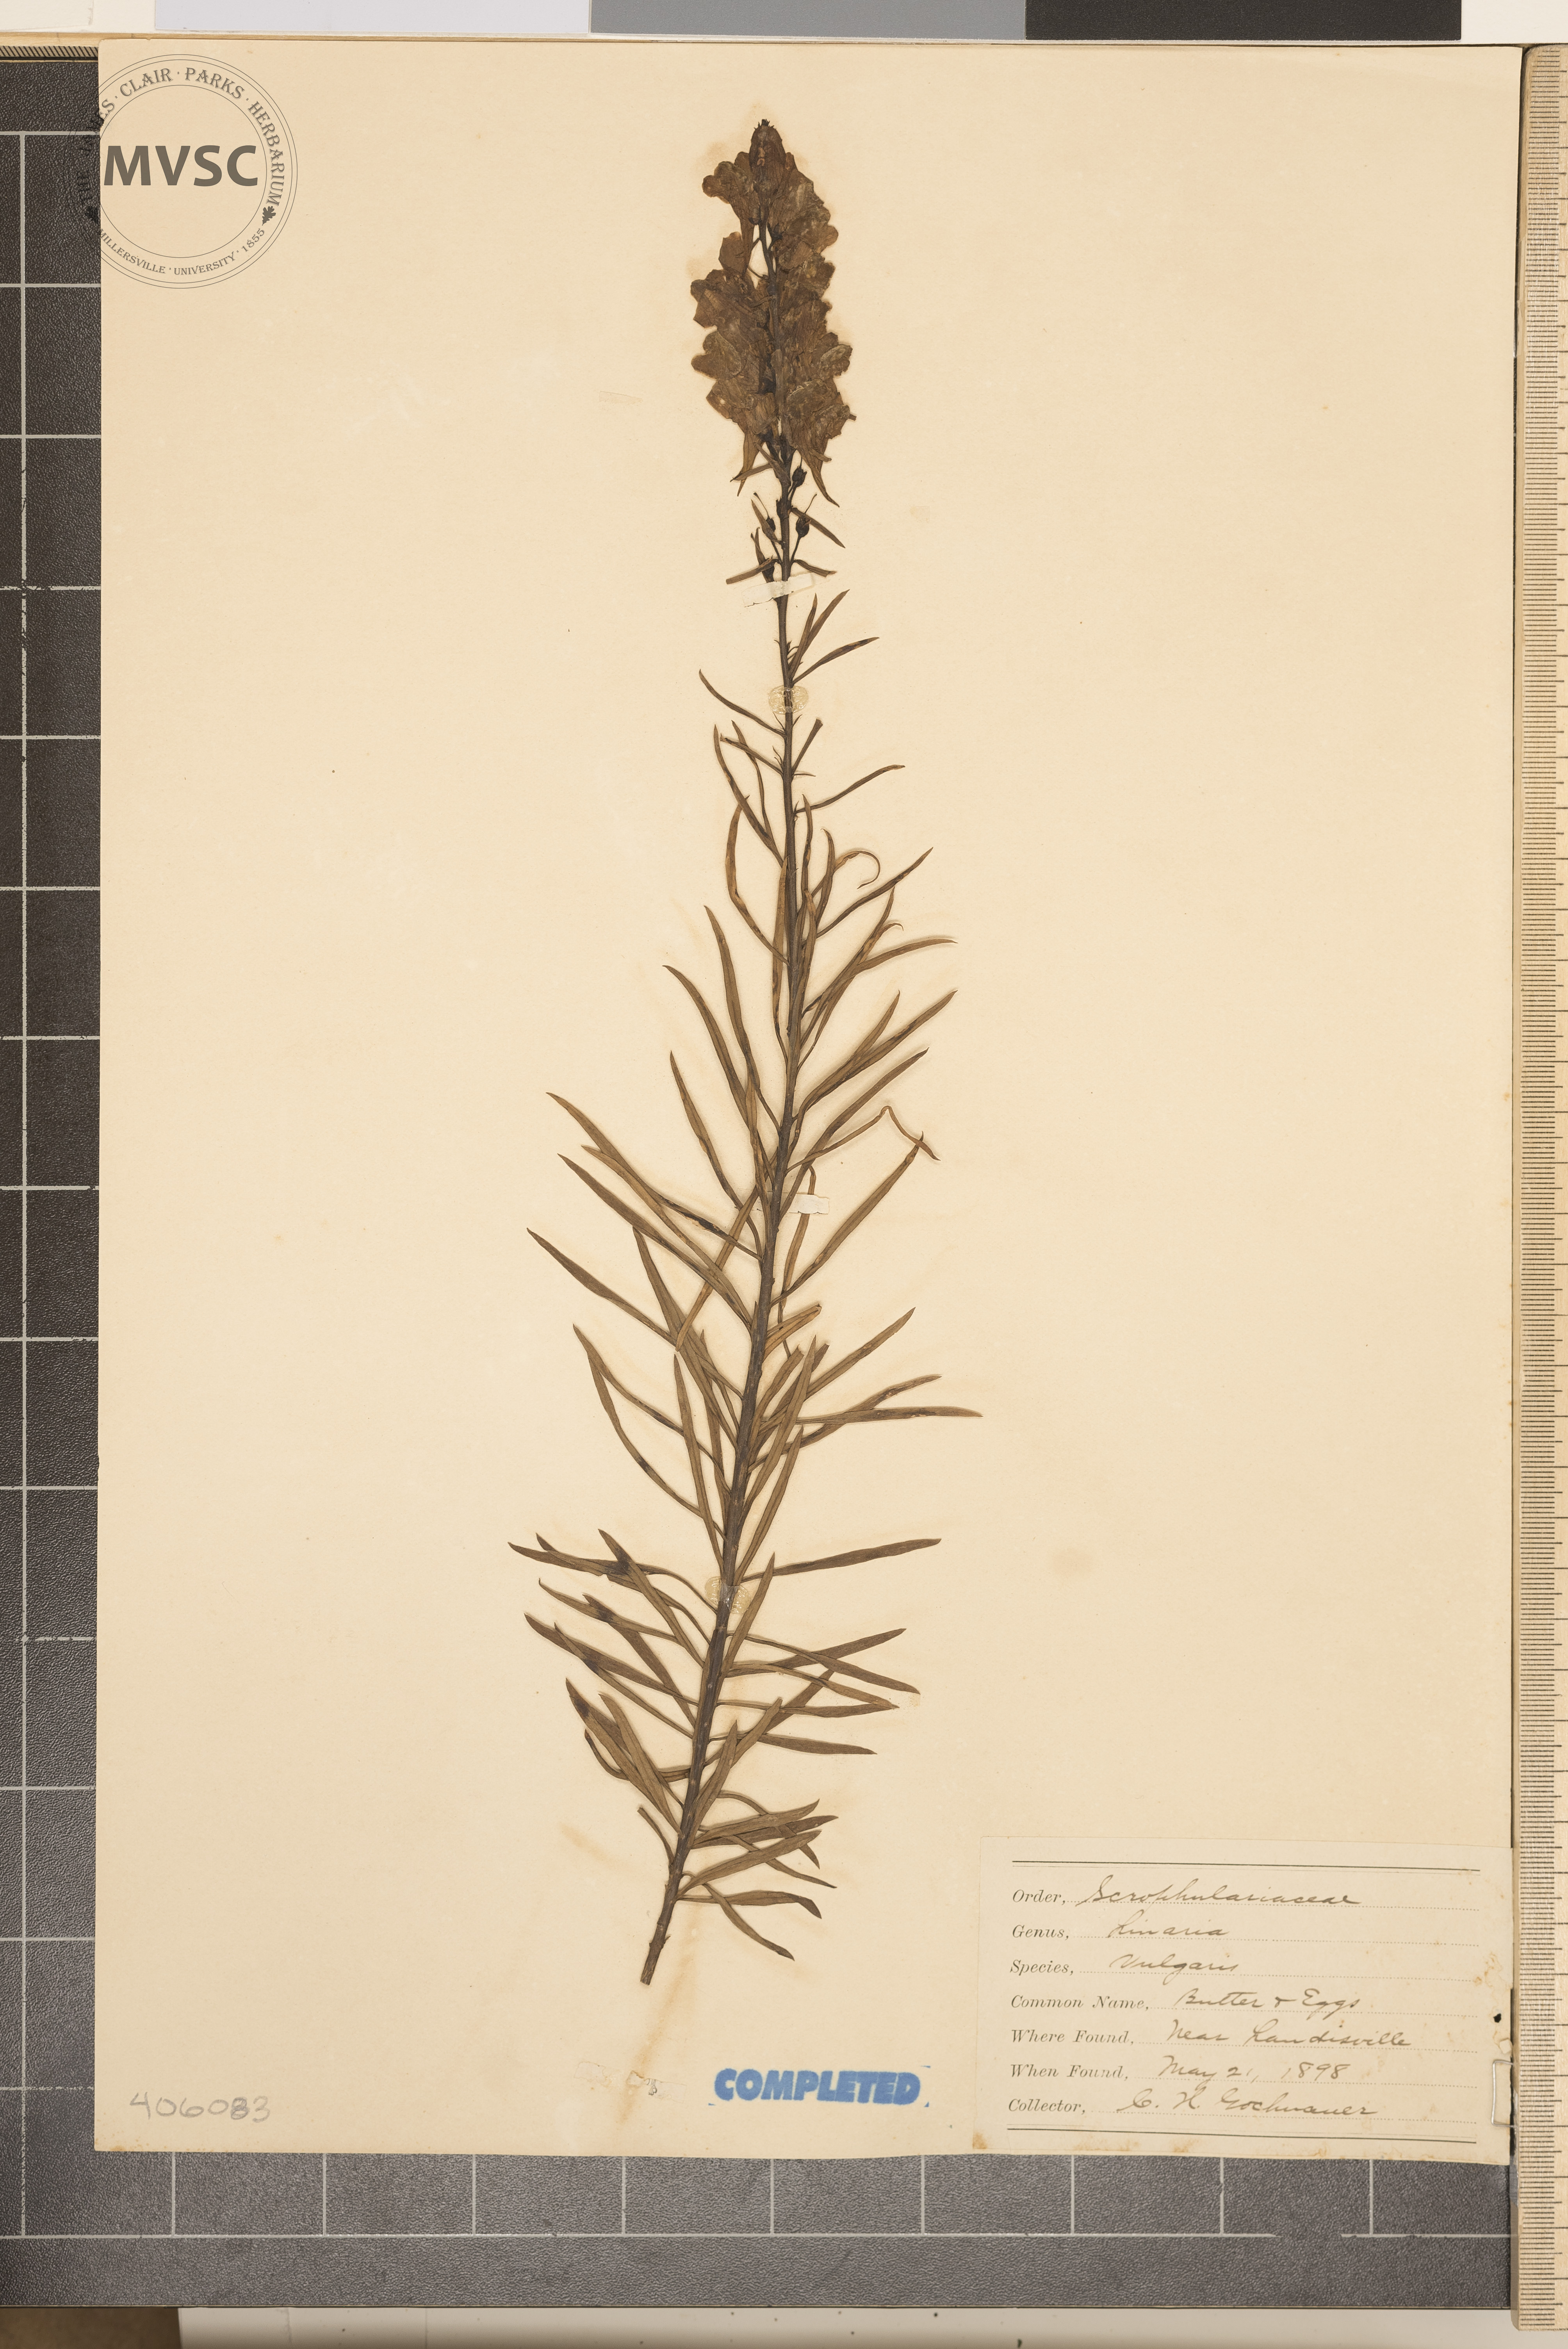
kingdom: Plantae
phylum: Tracheophyta
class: Magnoliopsida
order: Lamiales
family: Plantaginaceae
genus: Linaria
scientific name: Linaria vulgaris
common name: Butter and eggs
